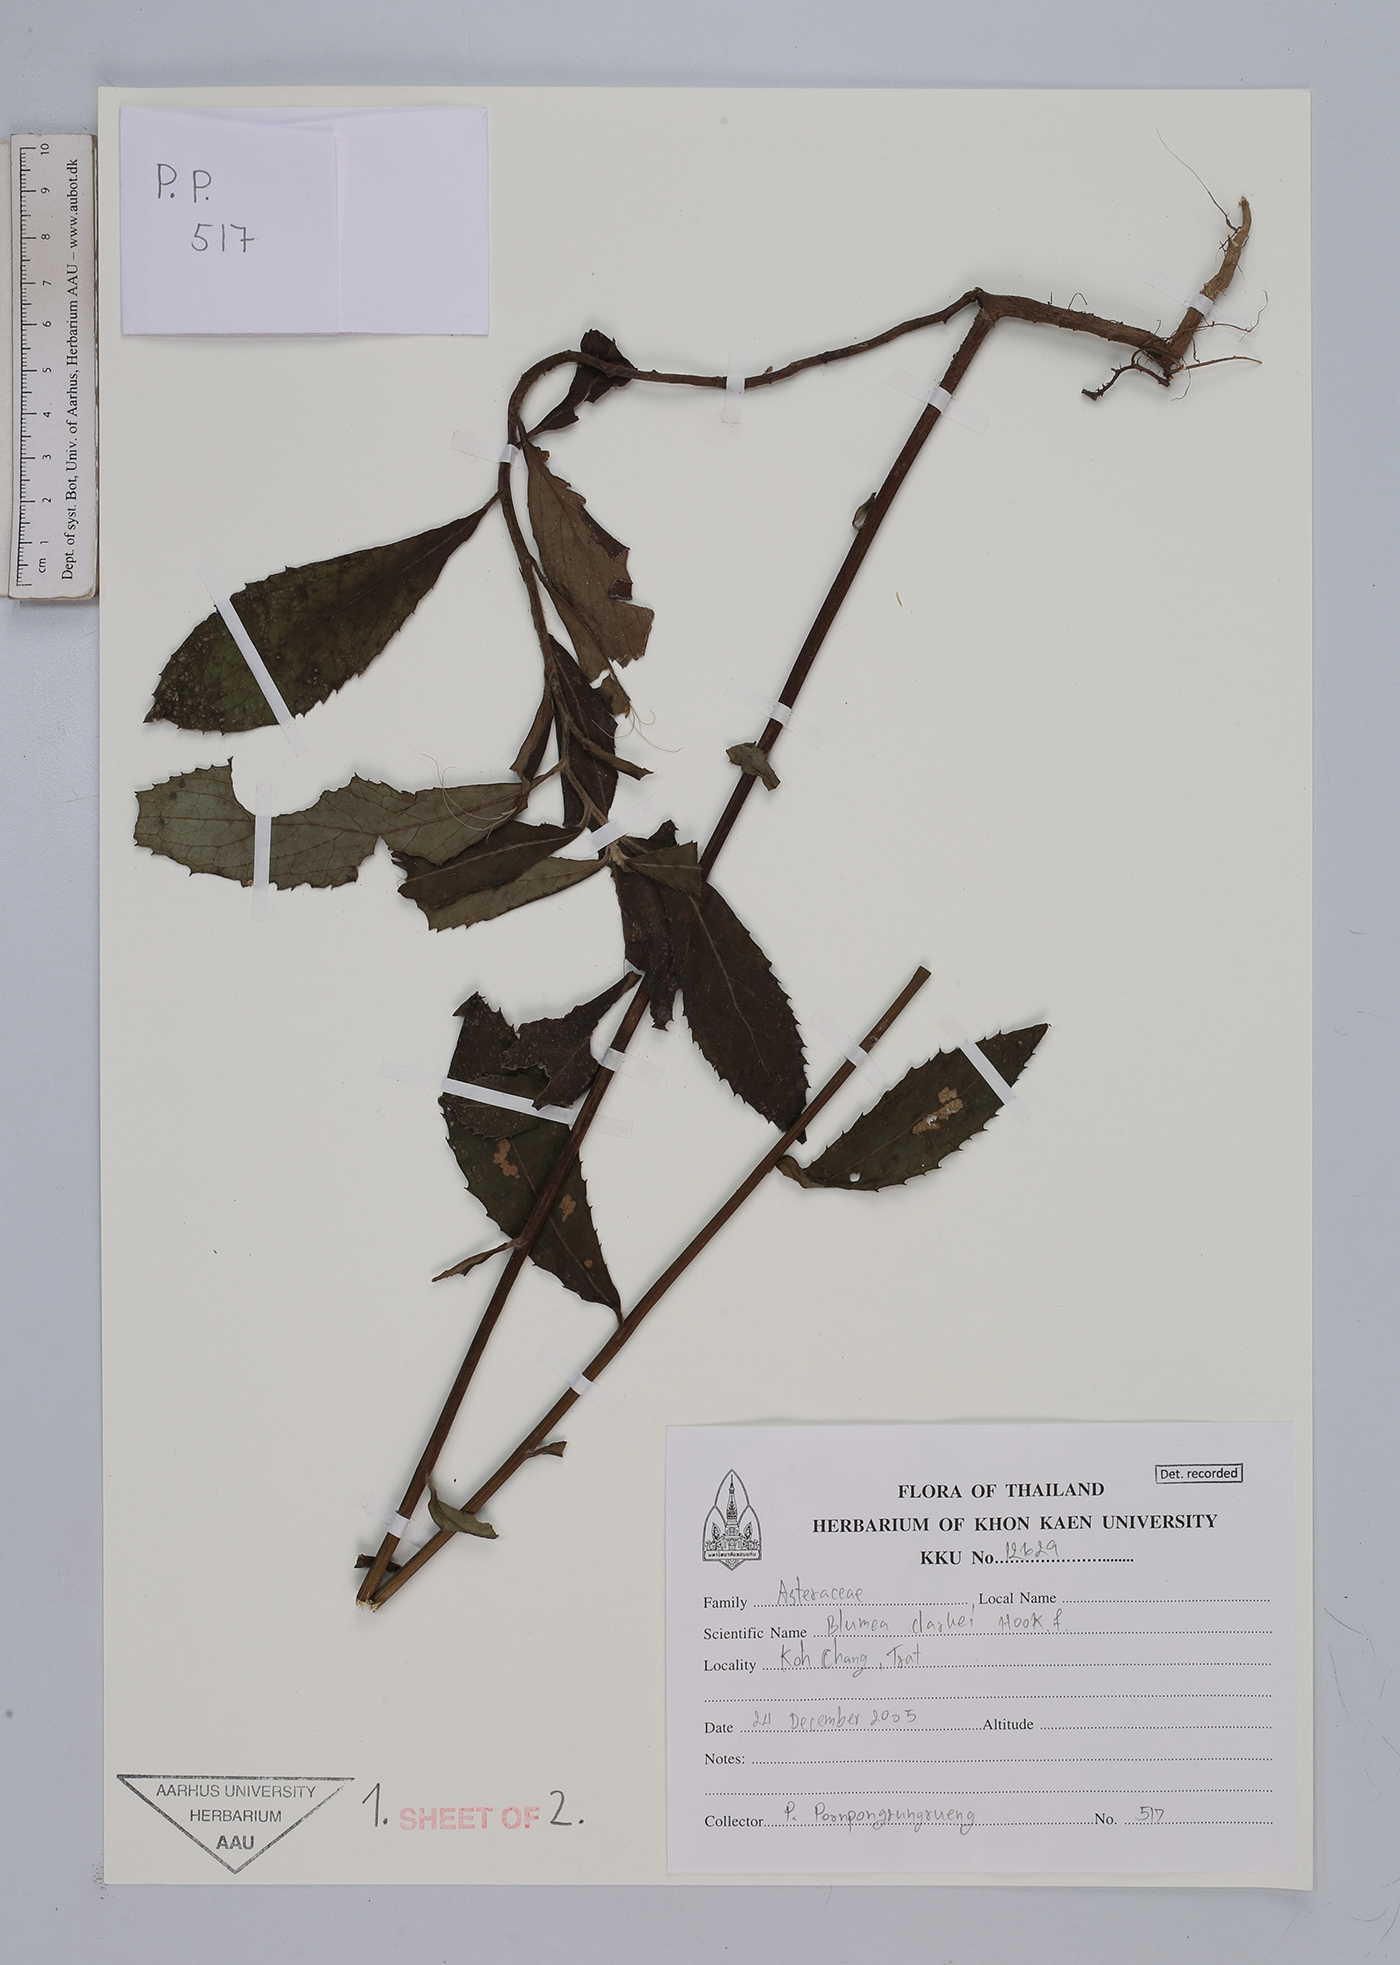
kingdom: Plantae
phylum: Tracheophyta
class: Magnoliopsida
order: Asterales
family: Asteraceae
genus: Blumea
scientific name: Blumea hirsuta
